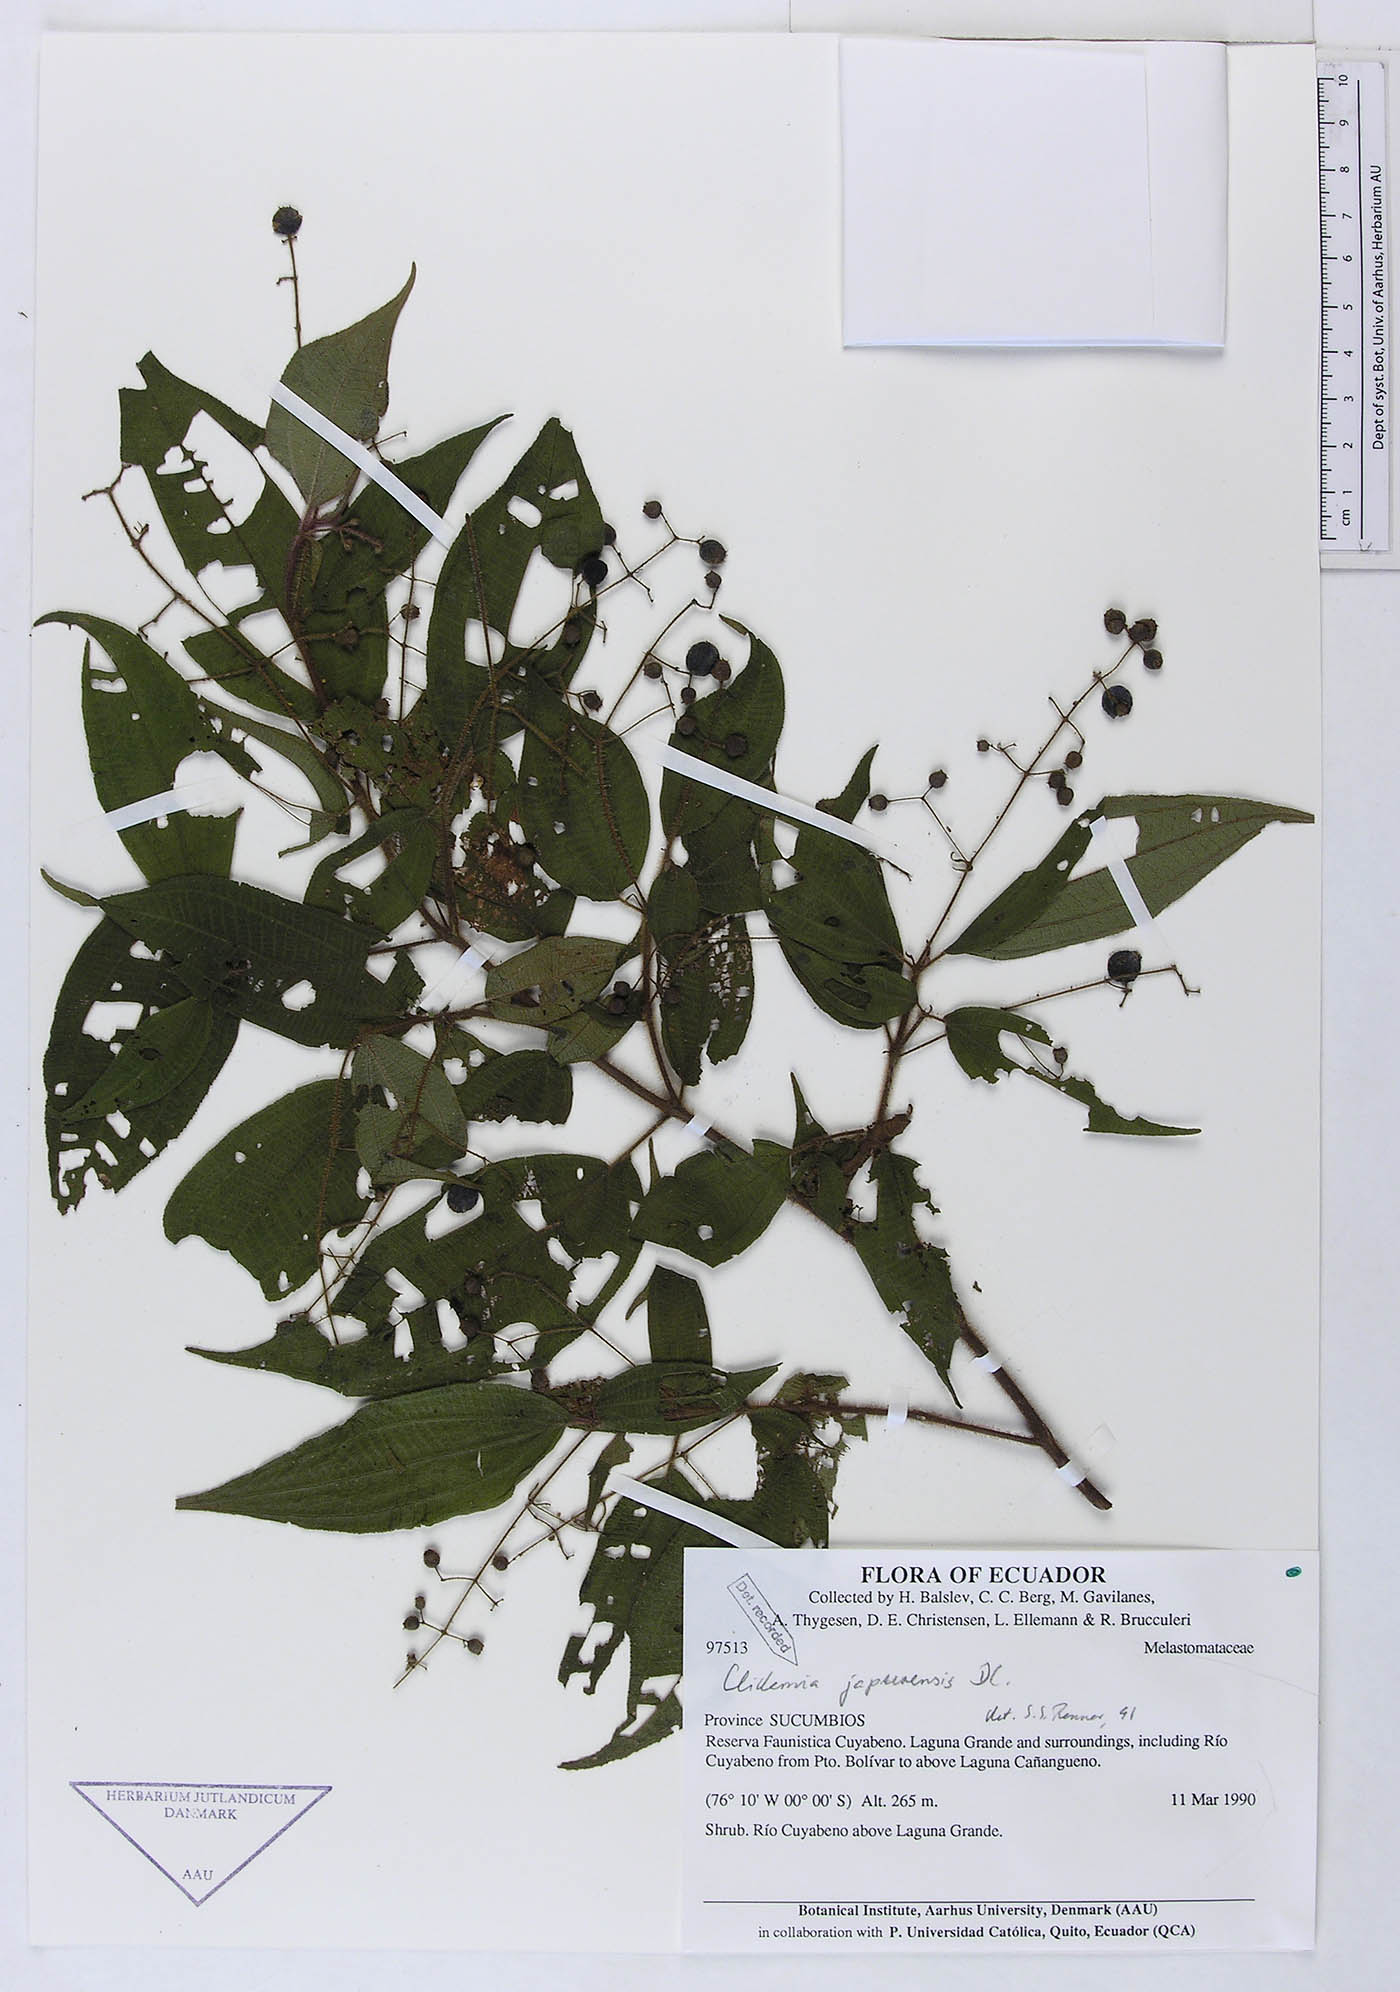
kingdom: Plantae
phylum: Tracheophyta
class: Magnoliopsida
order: Myrtales
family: Melastomataceae
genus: Miconia
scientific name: Miconia heteroclita
